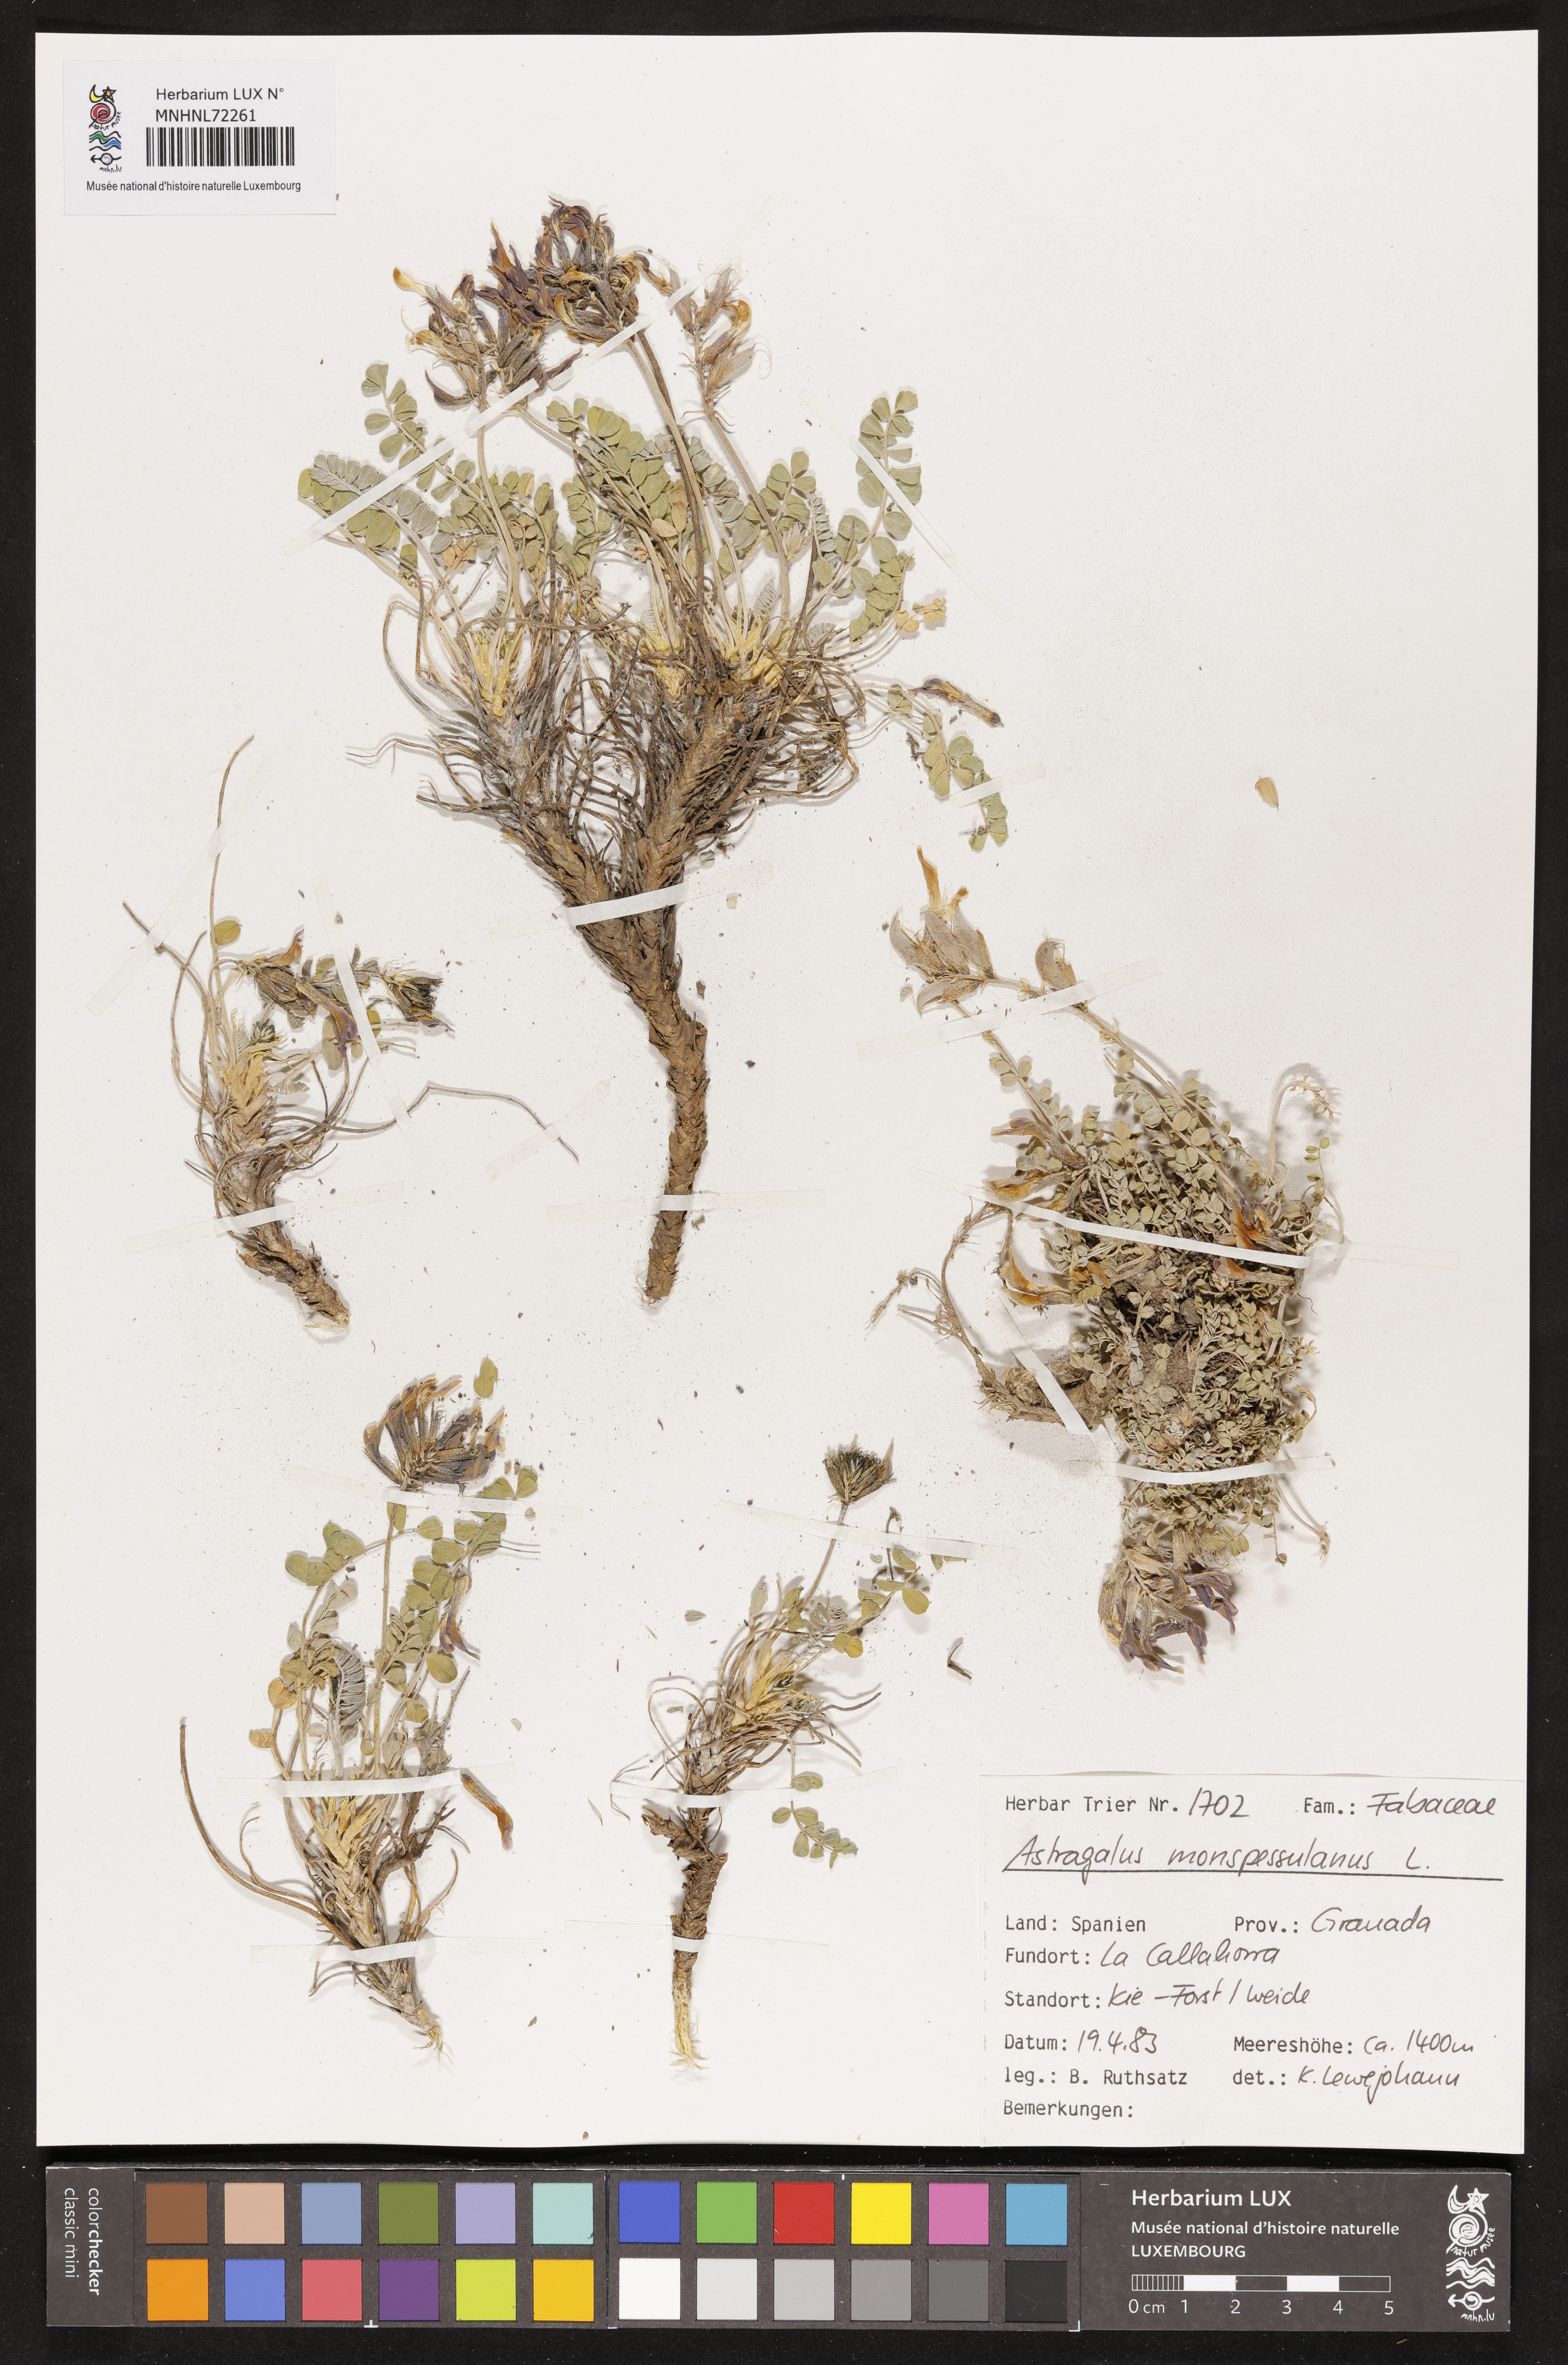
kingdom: Plantae
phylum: Tracheophyta
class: Magnoliopsida
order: Fabales
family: Fabaceae
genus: Astragalus
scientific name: Astragalus monspessulanus
